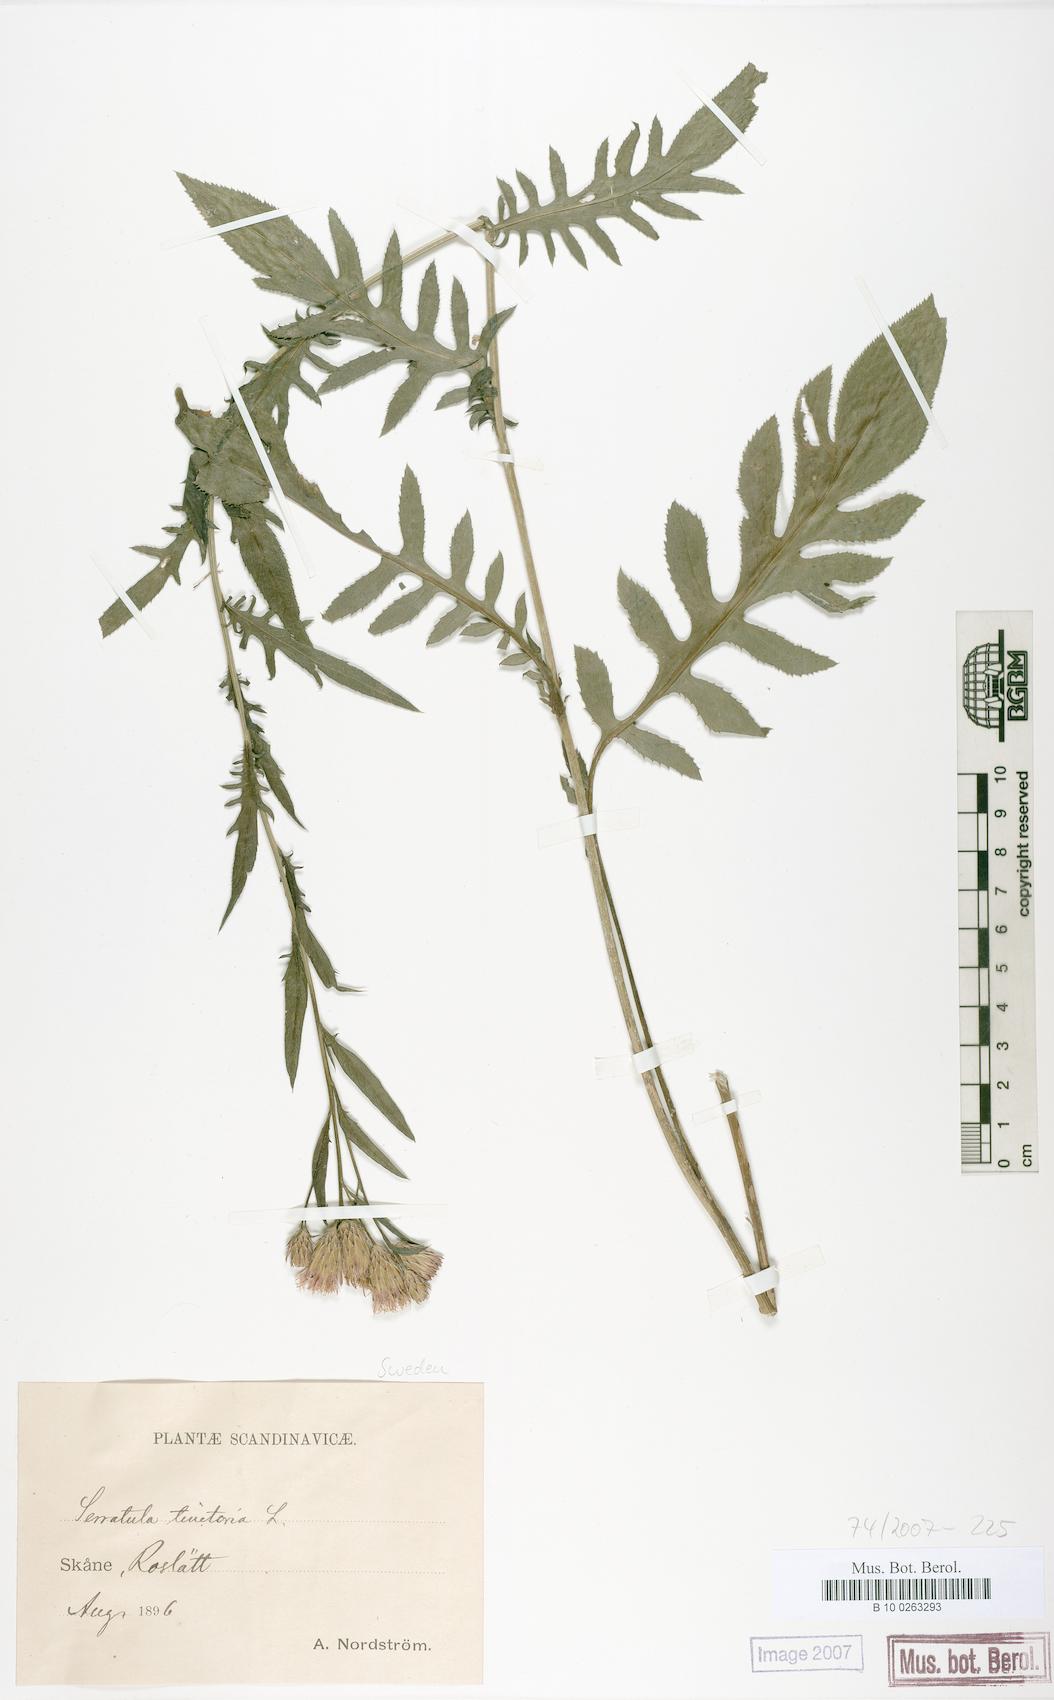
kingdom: Plantae
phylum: Tracheophyta
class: Magnoliopsida
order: Asterales
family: Asteraceae
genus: Serratula
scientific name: Serratula tinctoria
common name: Saw-wort
